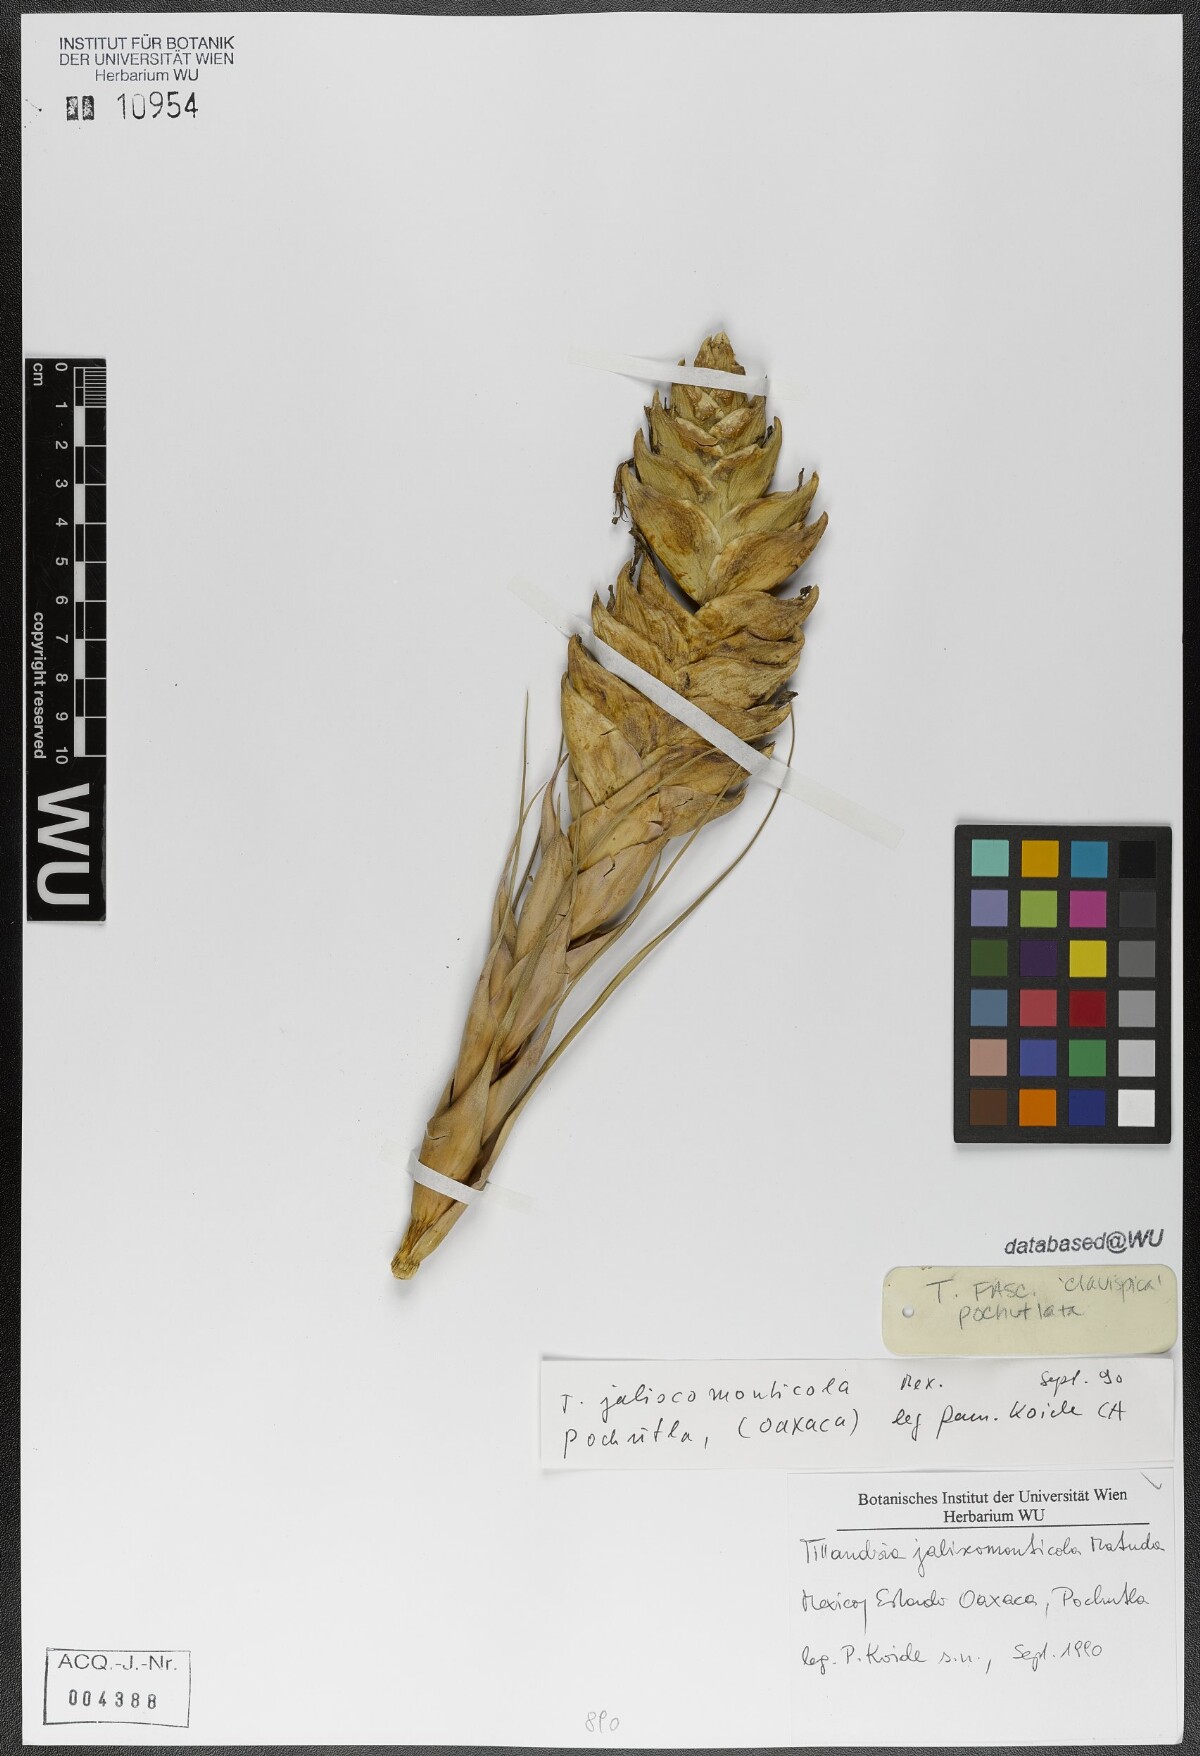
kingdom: Plantae
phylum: Tracheophyta
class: Liliopsida
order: Poales
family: Bromeliaceae
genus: Tillandsia
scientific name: Tillandsia compressa
